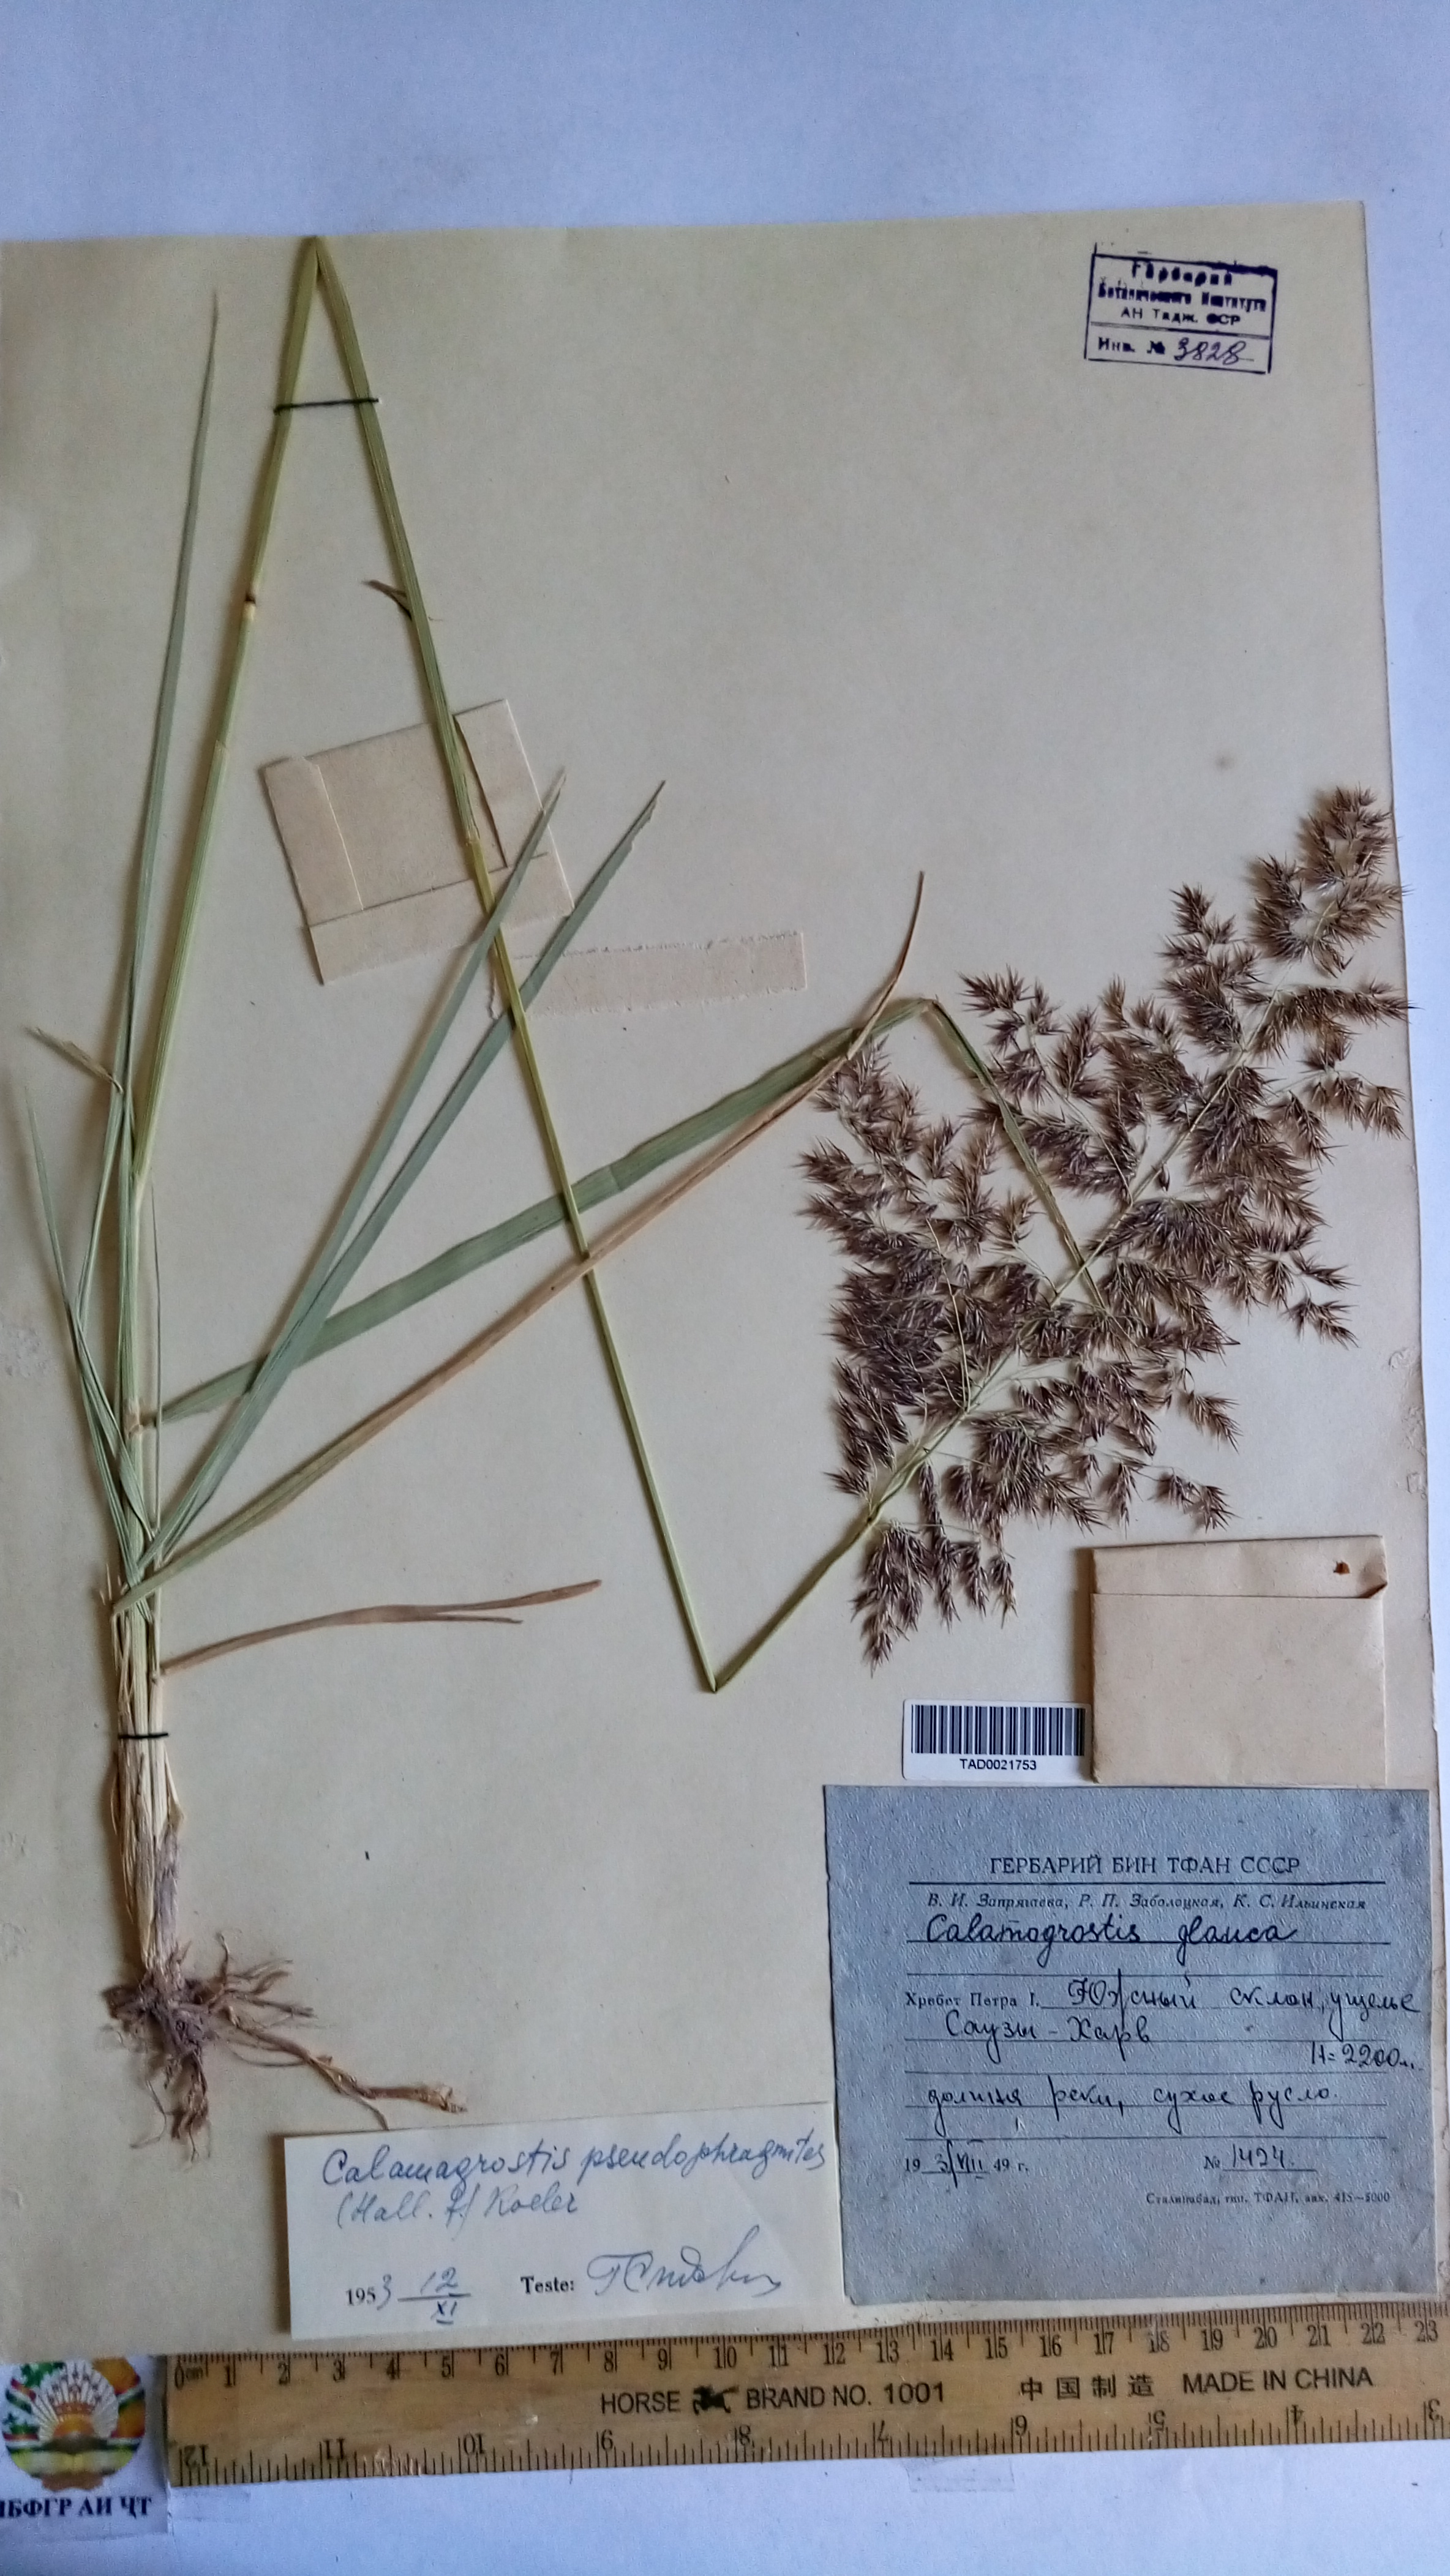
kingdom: Plantae
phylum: Tracheophyta
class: Liliopsida
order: Poales
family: Poaceae
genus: Calamagrostis
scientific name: Calamagrostis pseudophragmites
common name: Coastal small-reed
